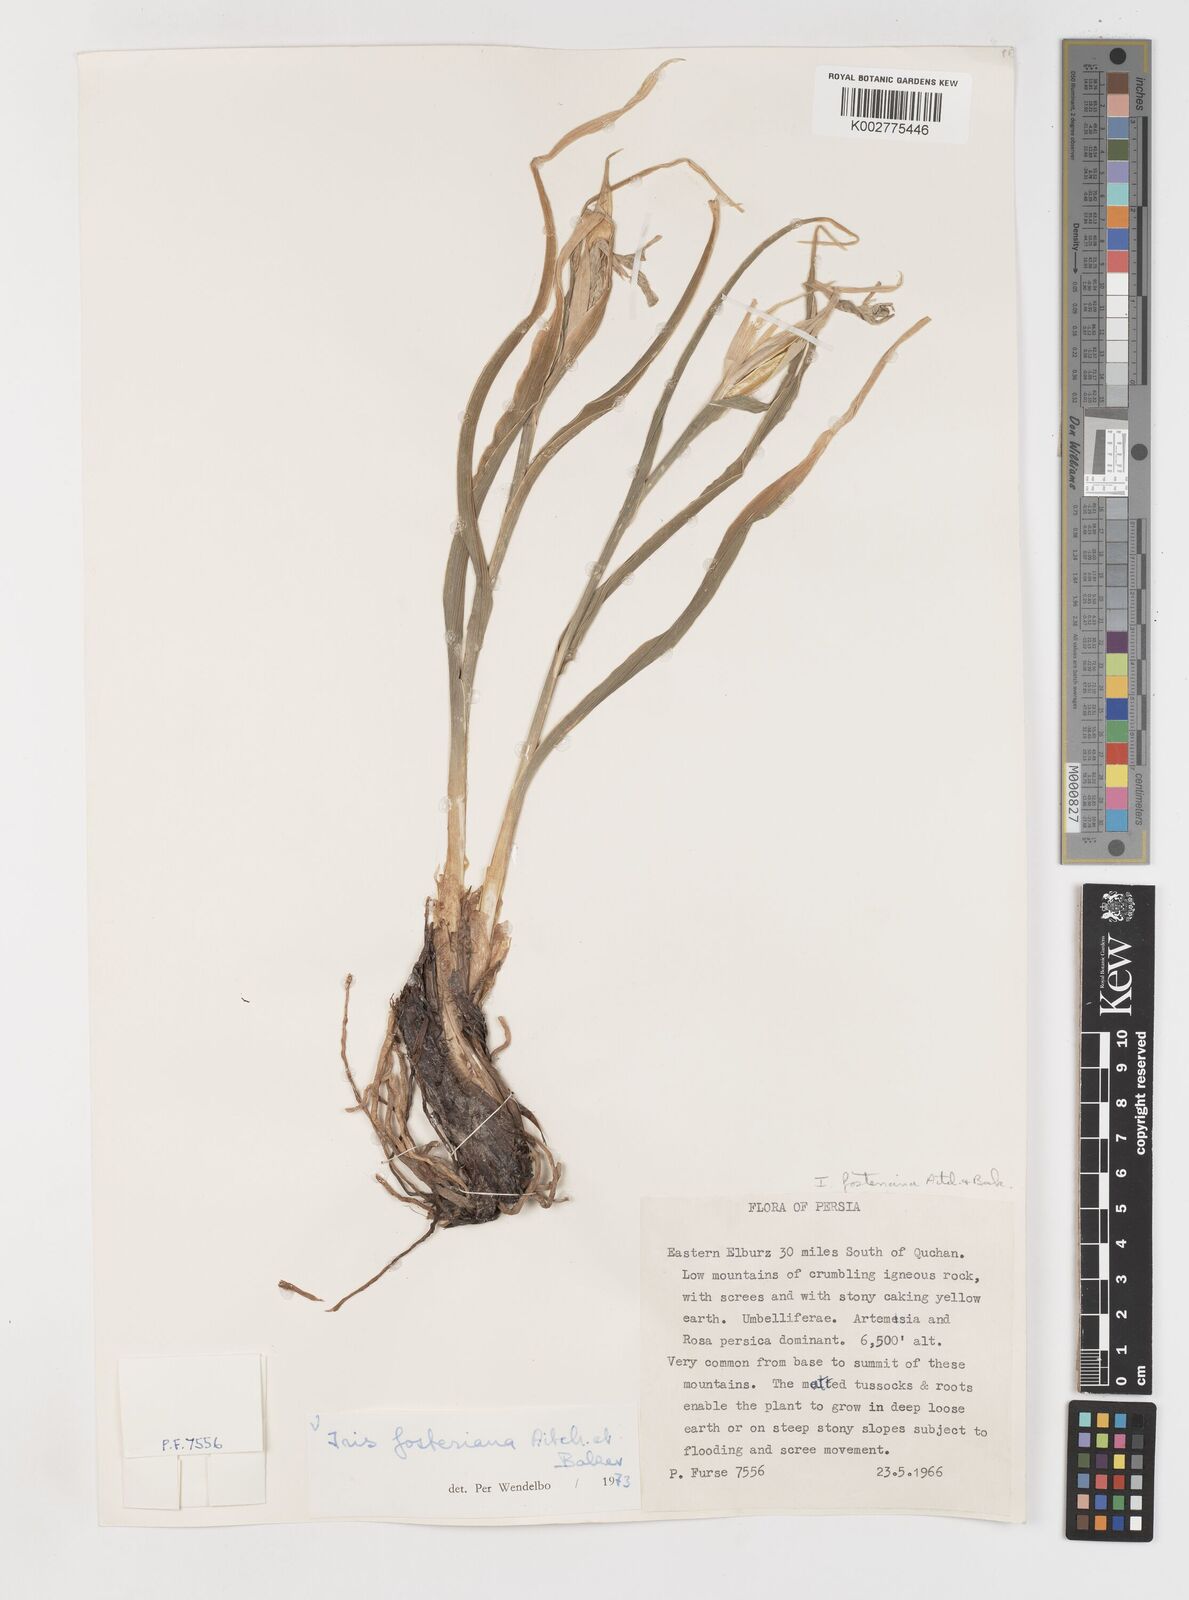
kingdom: Plantae
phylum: Tracheophyta
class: Liliopsida
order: Asparagales
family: Iridaceae
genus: Iris
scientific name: Iris fosteriana
